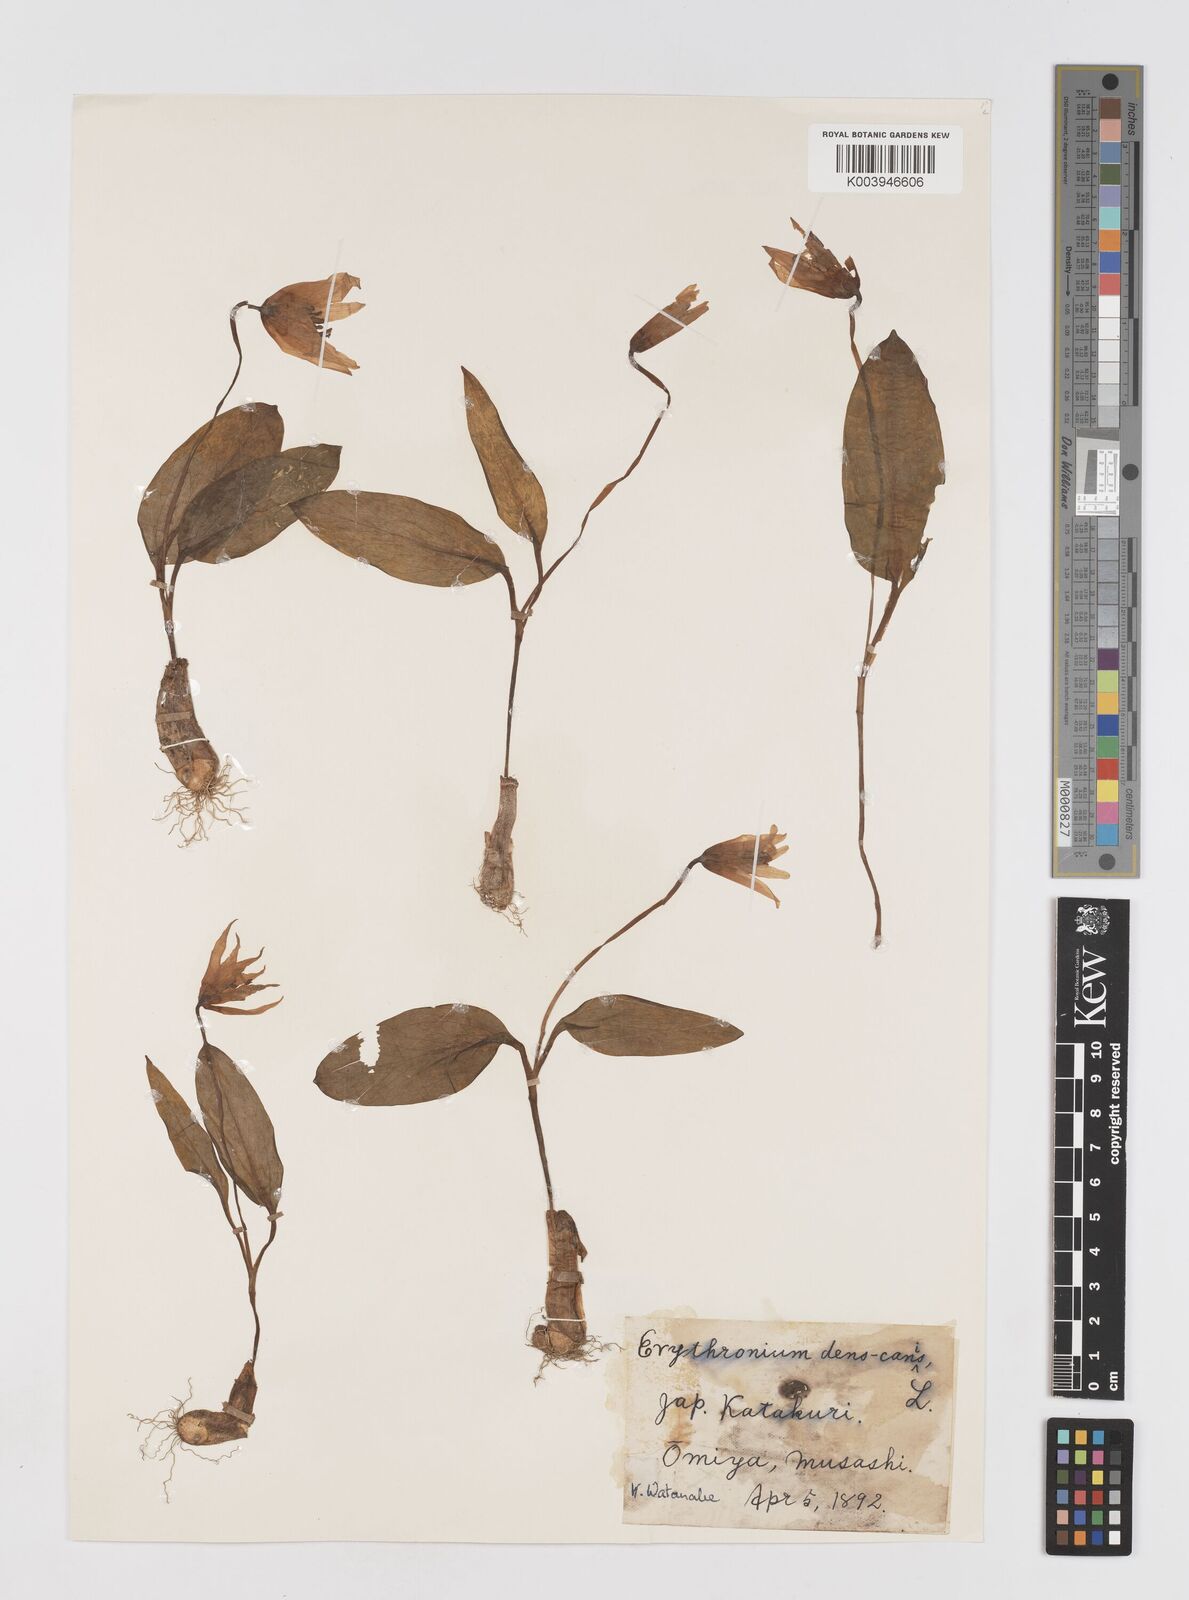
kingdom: Plantae
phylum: Tracheophyta
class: Liliopsida
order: Liliales
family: Liliaceae
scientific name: Liliaceae
